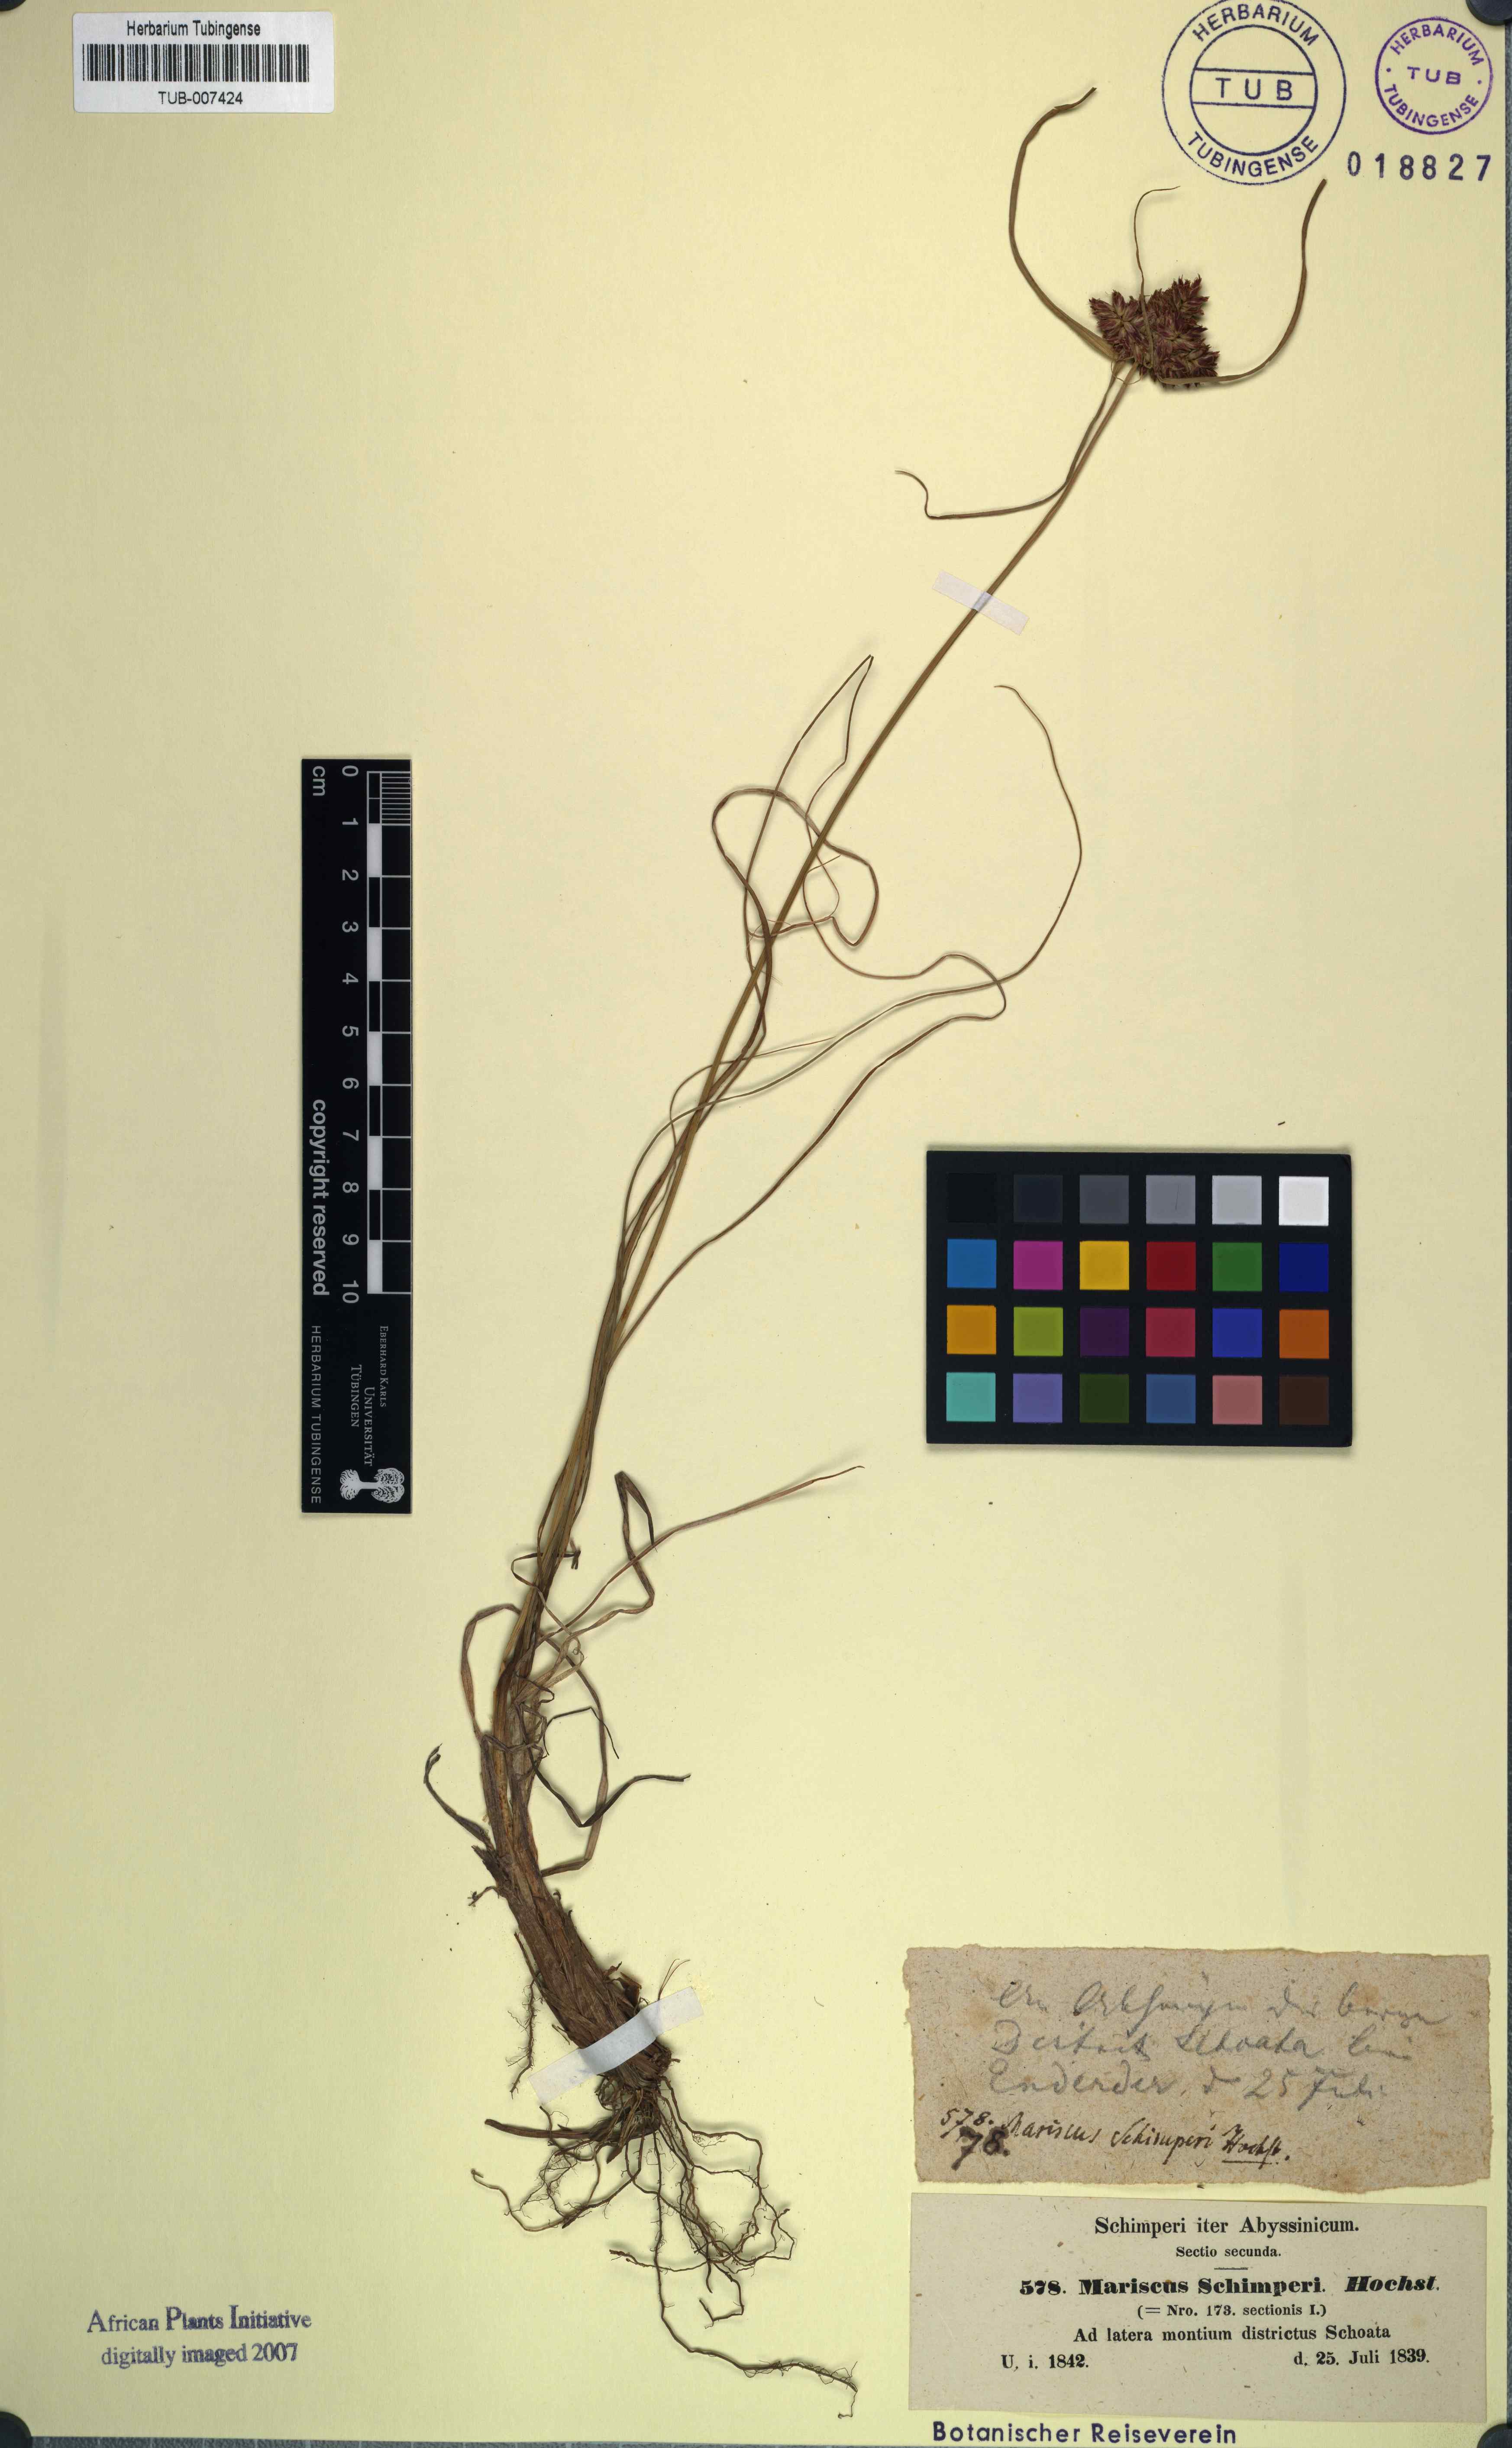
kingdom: Plantae
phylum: Tracheophyta
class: Liliopsida
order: Poales
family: Cyperaceae
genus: Cladium
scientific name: Cladium Mariscus schimperi
